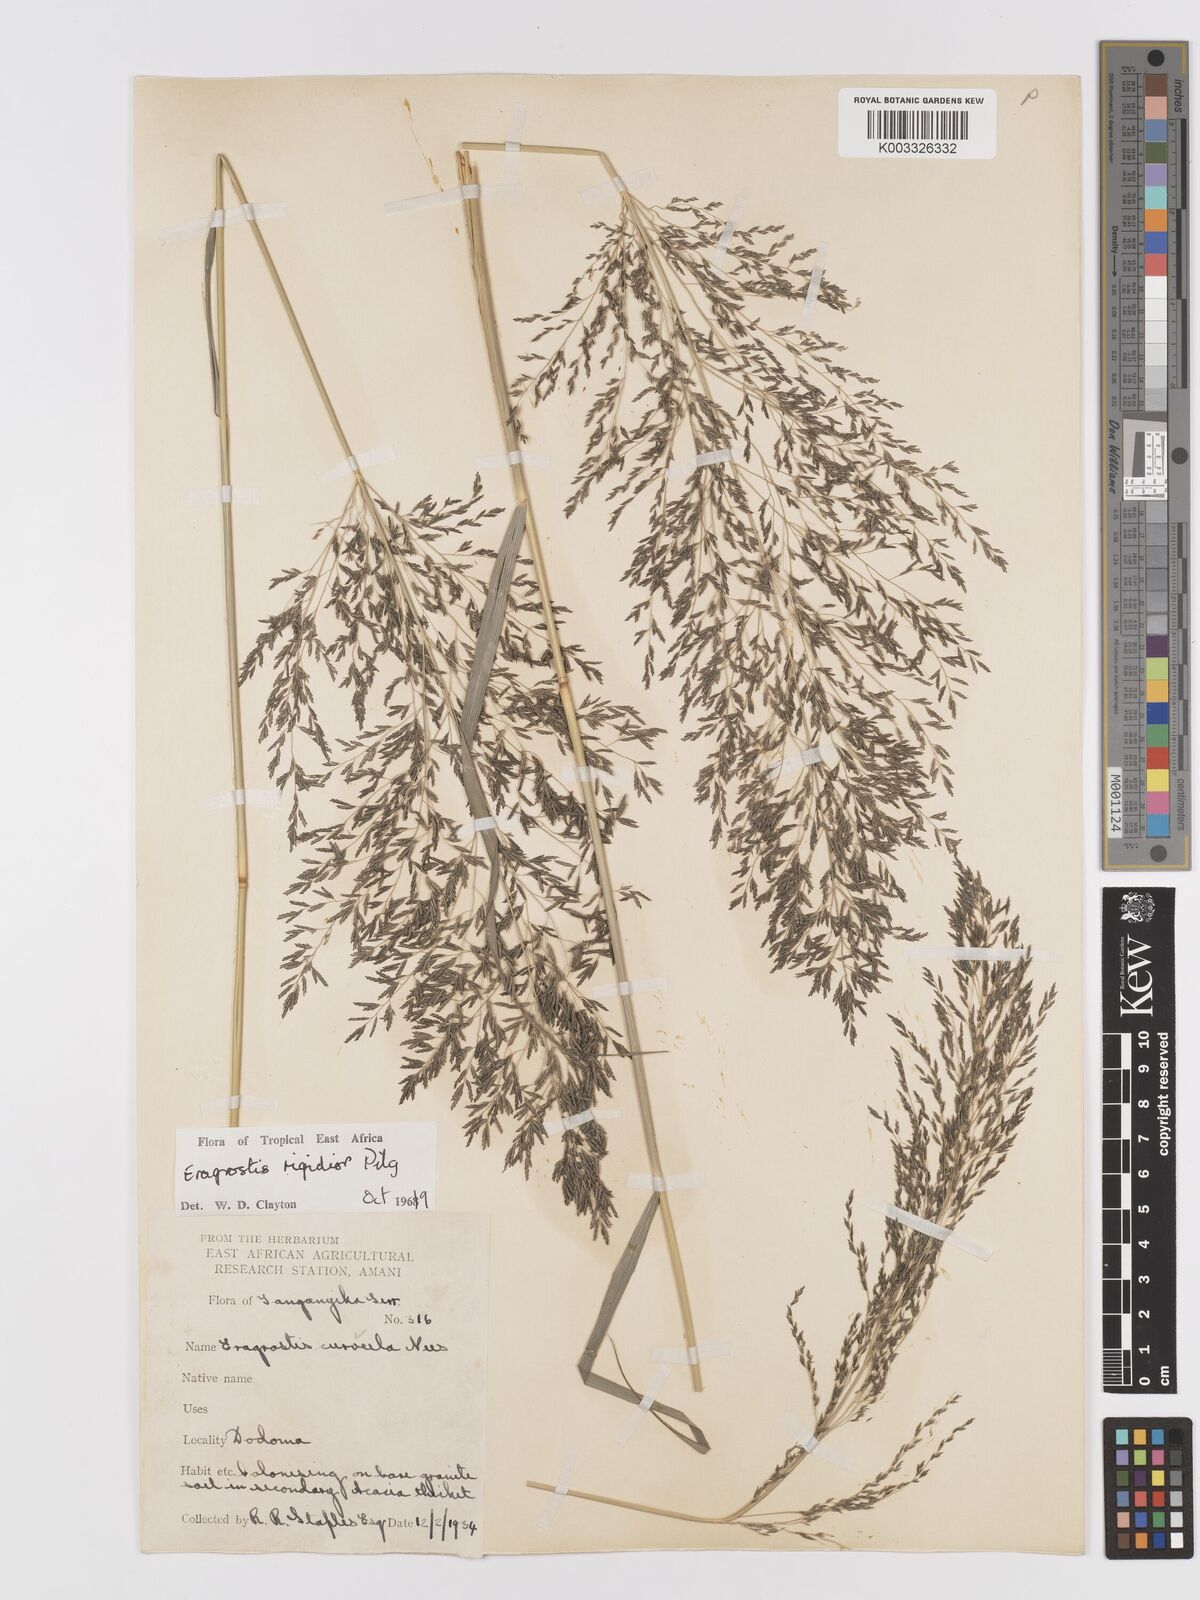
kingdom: Plantae
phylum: Tracheophyta
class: Liliopsida
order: Poales
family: Poaceae
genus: Eragrostis
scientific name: Eragrostis cylindriflora
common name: Cylinderflower lovegrass
